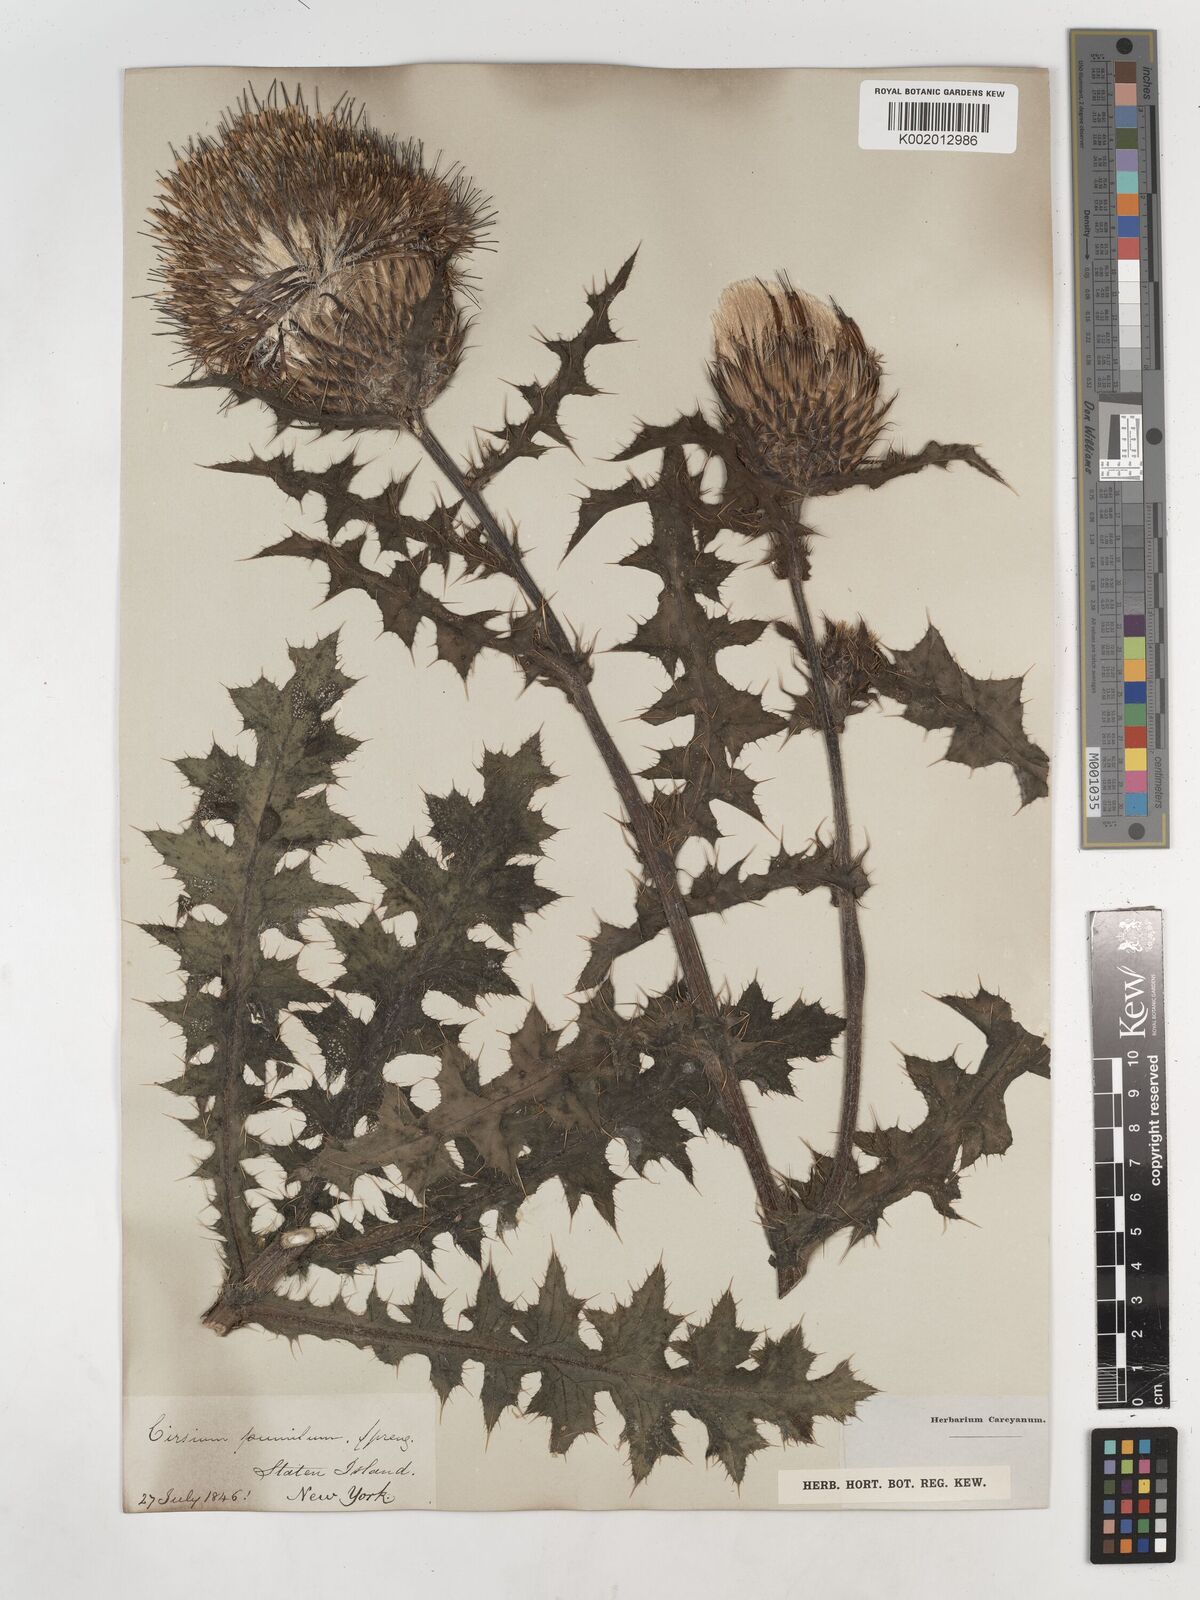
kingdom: Plantae
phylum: Tracheophyta
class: Magnoliopsida
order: Asterales
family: Asteraceae
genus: Cirsium
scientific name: Cirsium pumilum
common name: Pasture thistle
